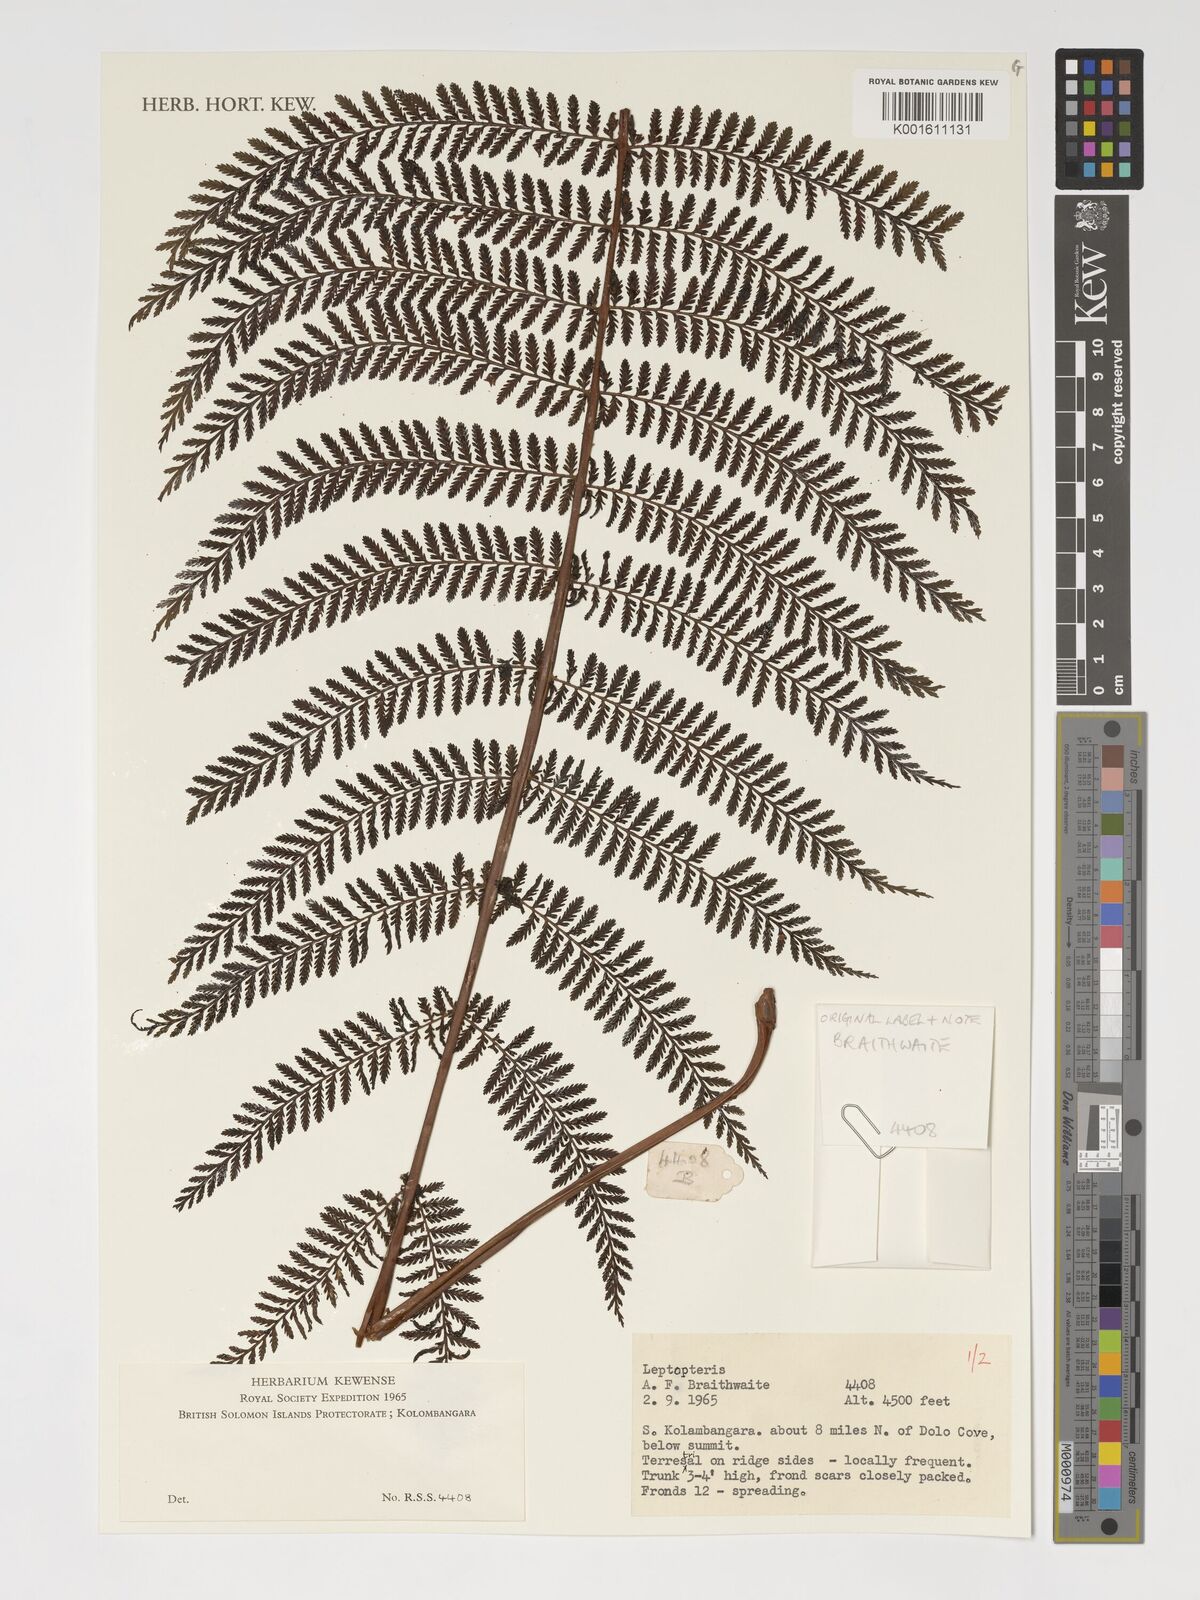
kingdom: Plantae
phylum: Tracheophyta
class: Polypodiopsida
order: Osmundales
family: Osmundaceae
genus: Leptopteris
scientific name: Leptopteris
